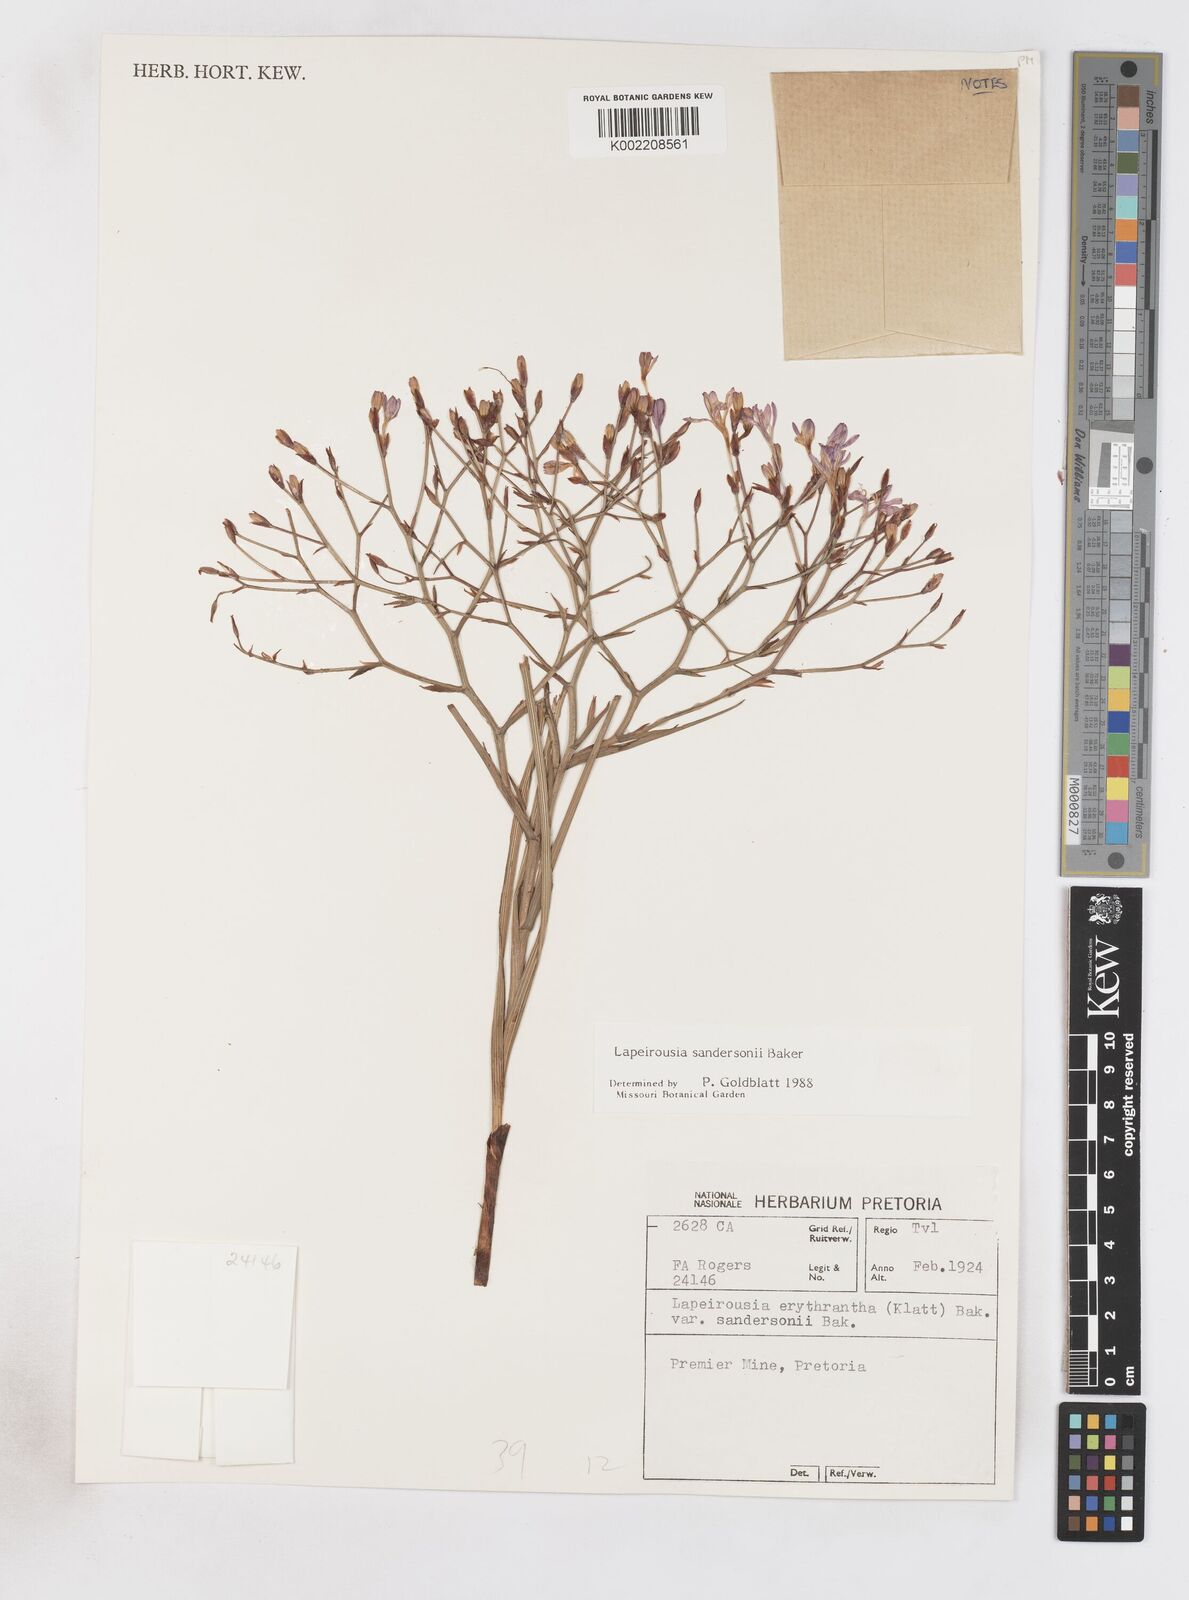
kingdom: Plantae
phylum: Tracheophyta
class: Liliopsida
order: Asparagales
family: Iridaceae
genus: Afrosolen
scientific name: Afrosolen sandersonii
